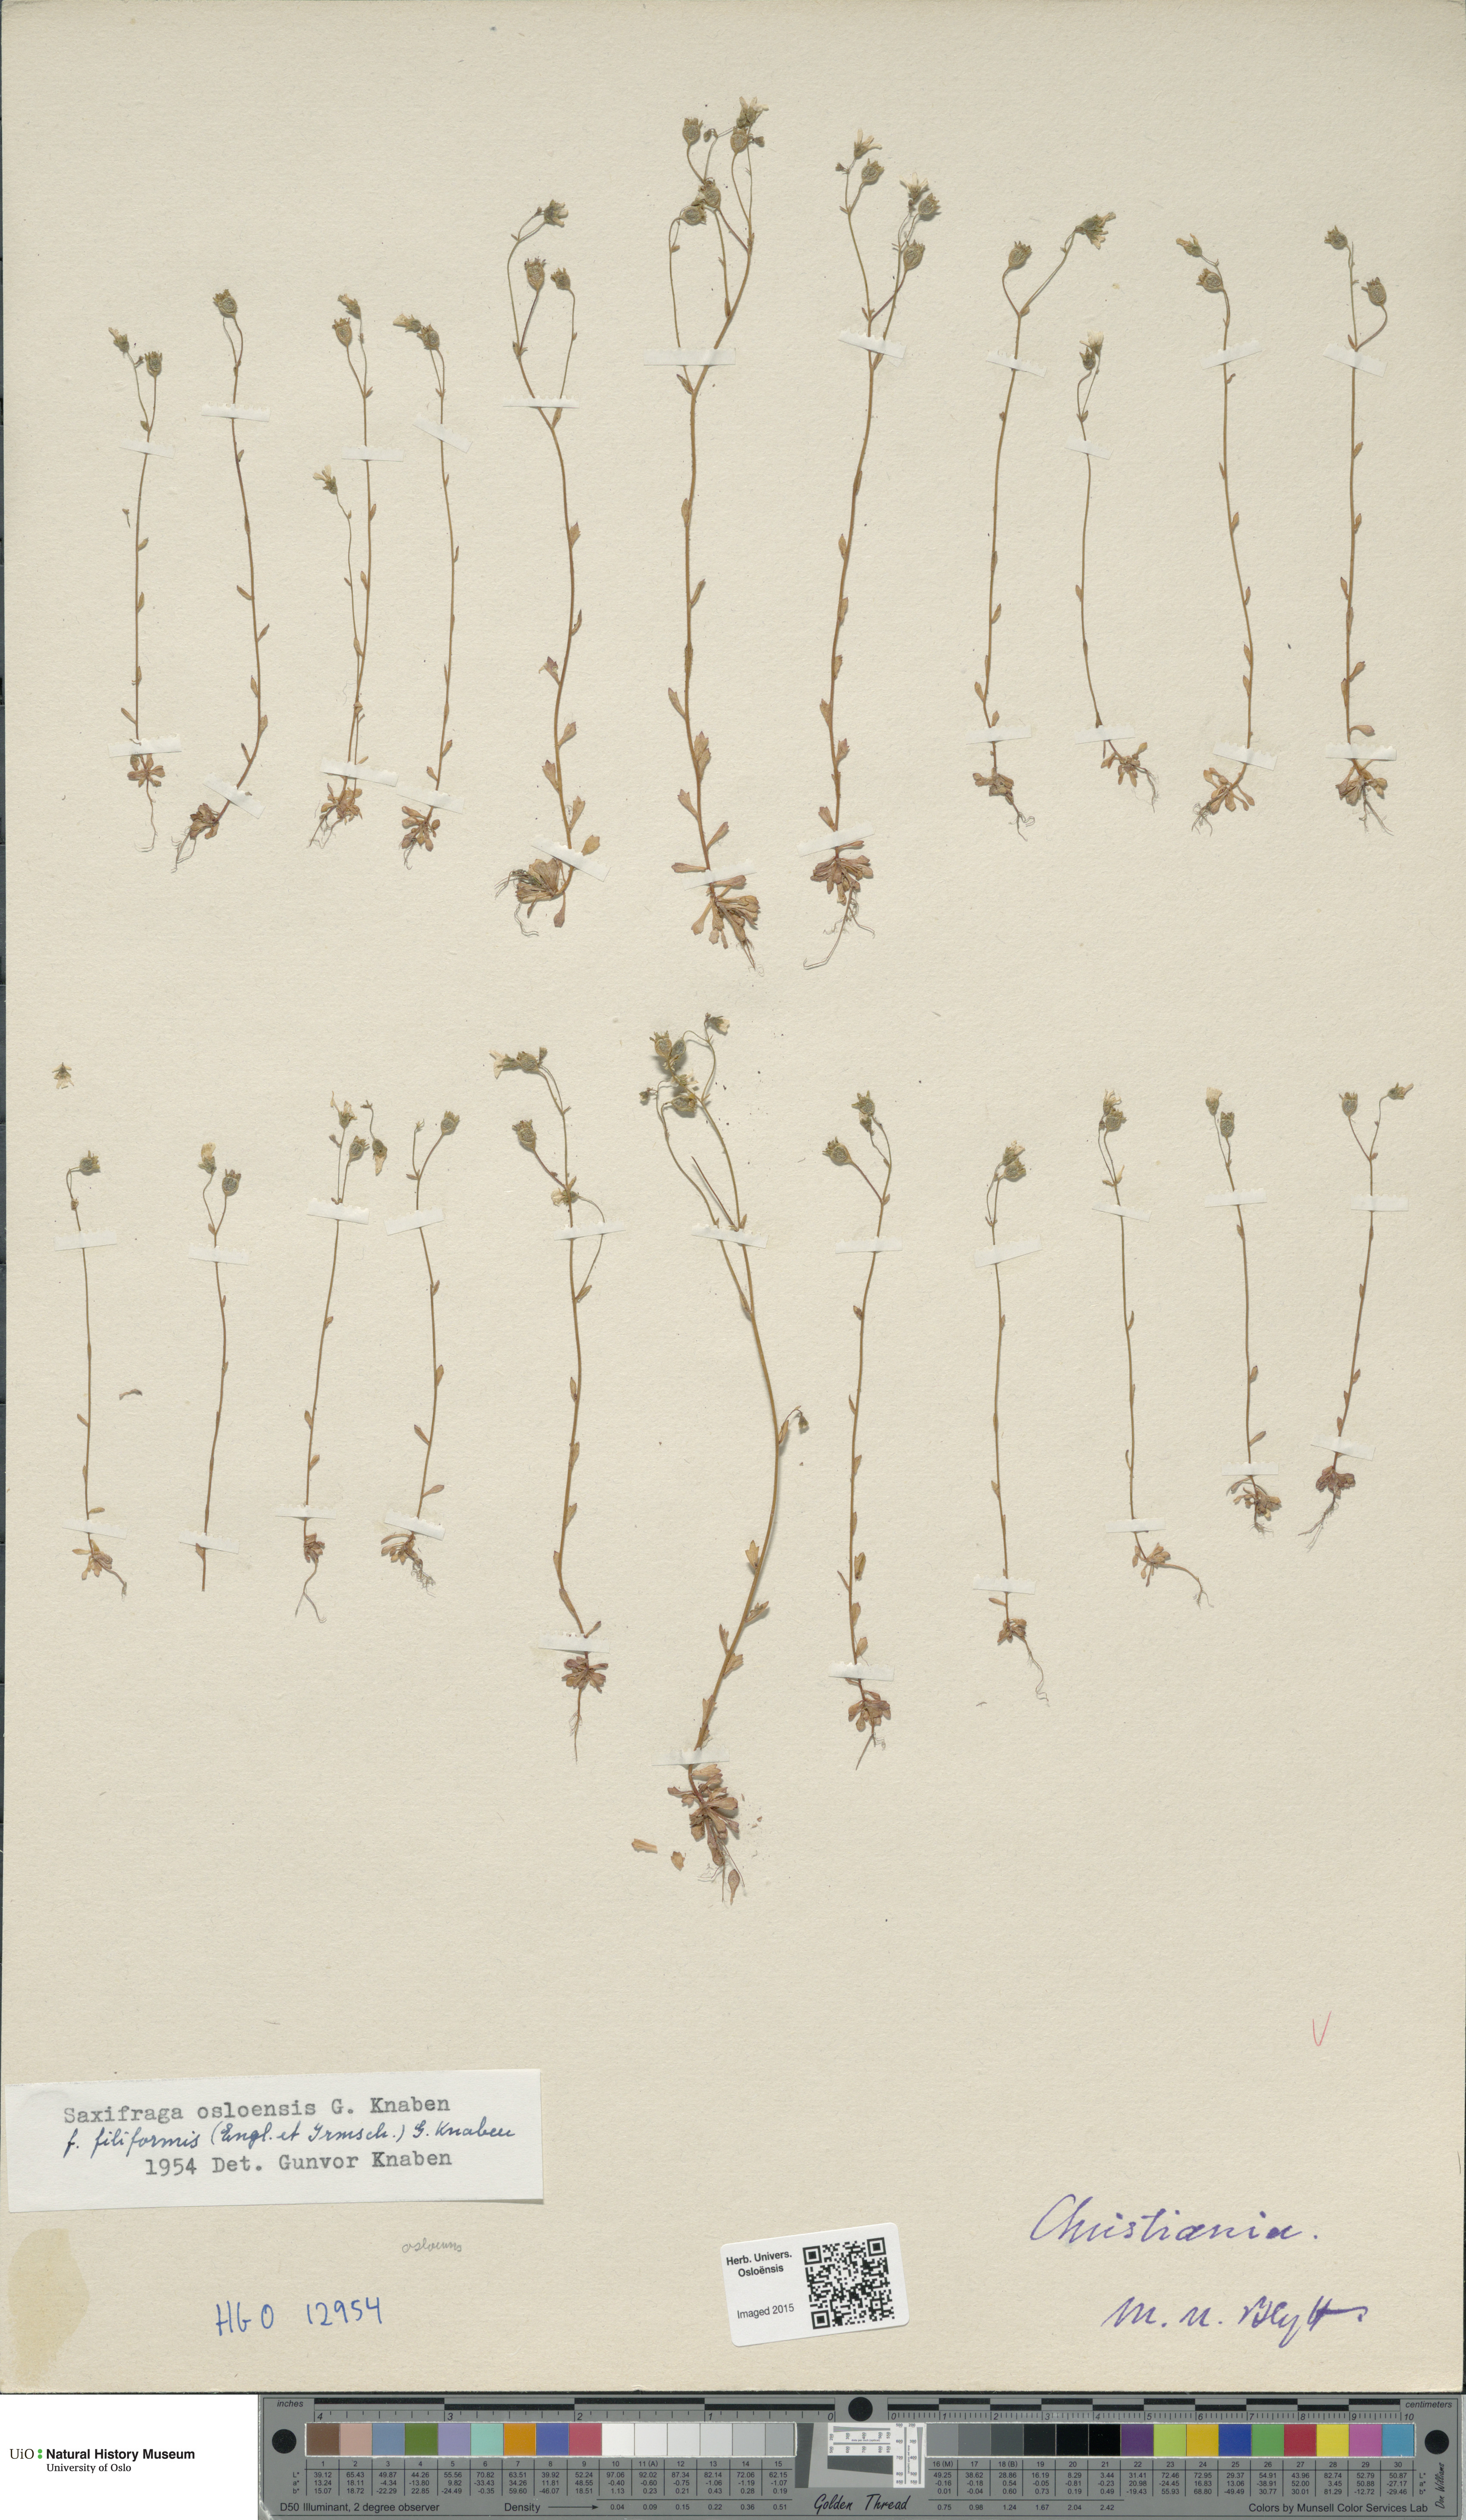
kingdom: Plantae
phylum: Tracheophyta
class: Magnoliopsida
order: Saxifragales
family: Saxifragaceae
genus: Saxifraga
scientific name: Saxifraga osloensis
